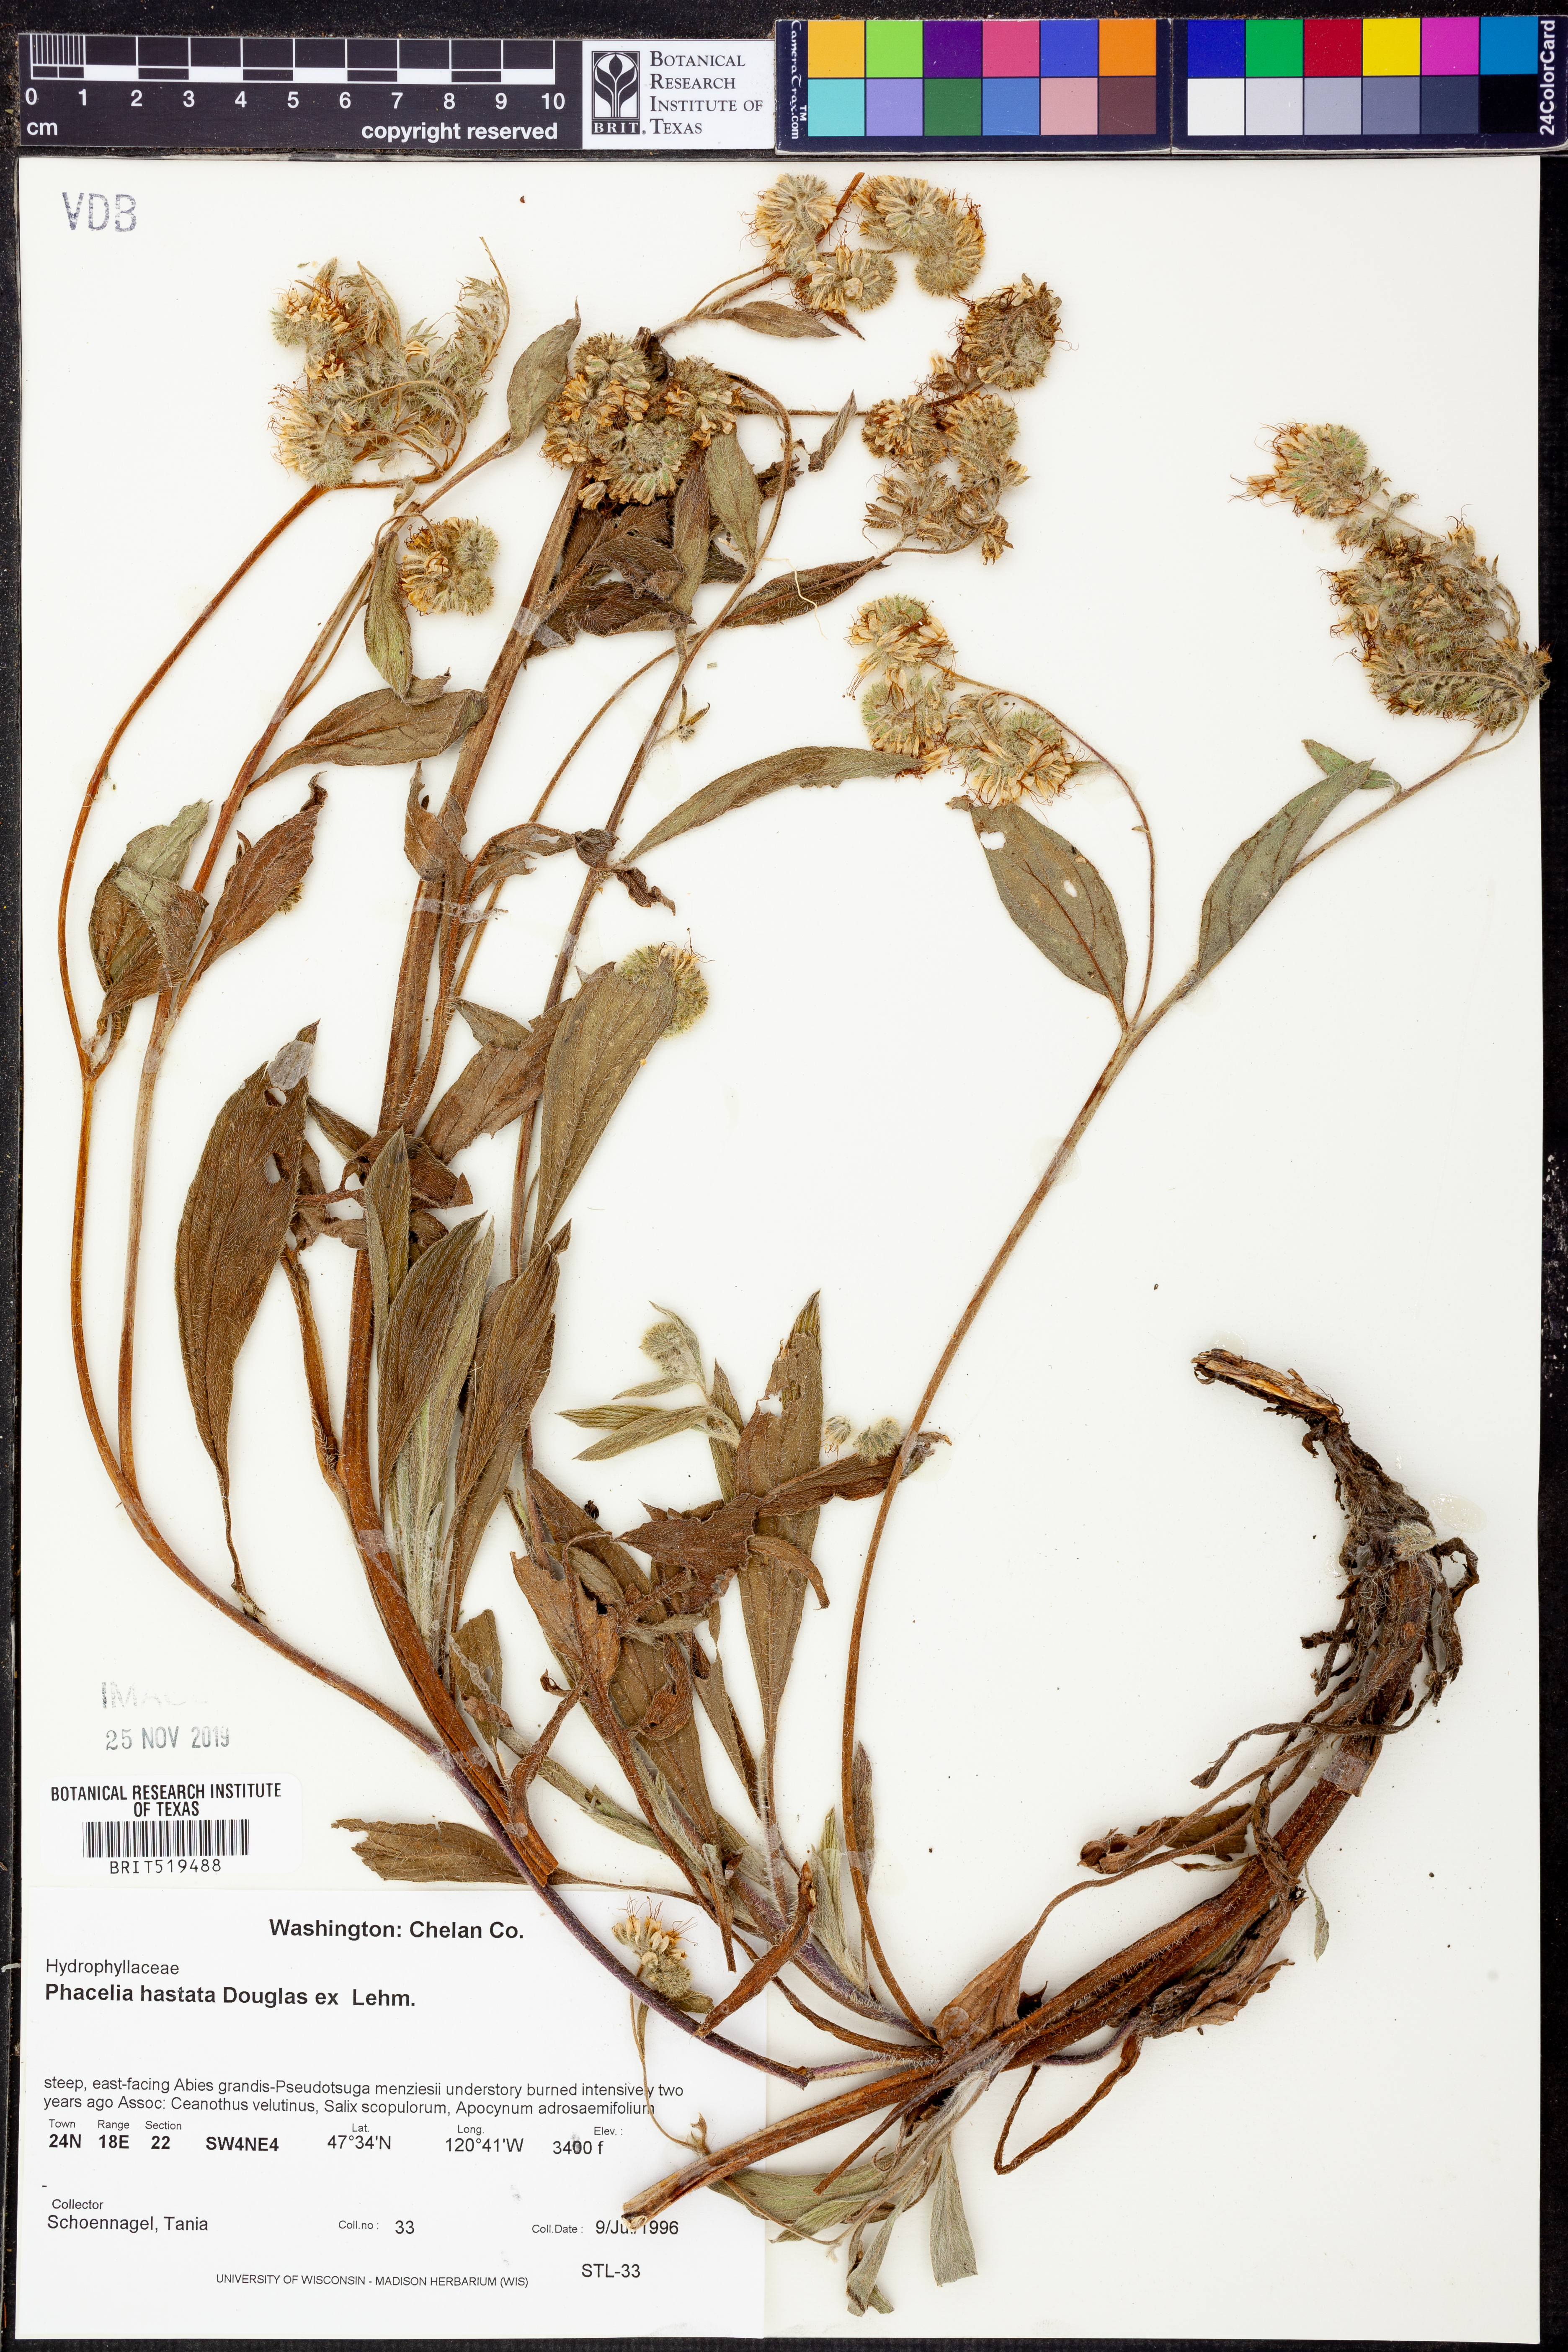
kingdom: Plantae
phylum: Tracheophyta
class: Magnoliopsida
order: Boraginales
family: Hydrophyllaceae
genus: Phacelia
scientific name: Phacelia hastata
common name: Silver-leaved phacelia
